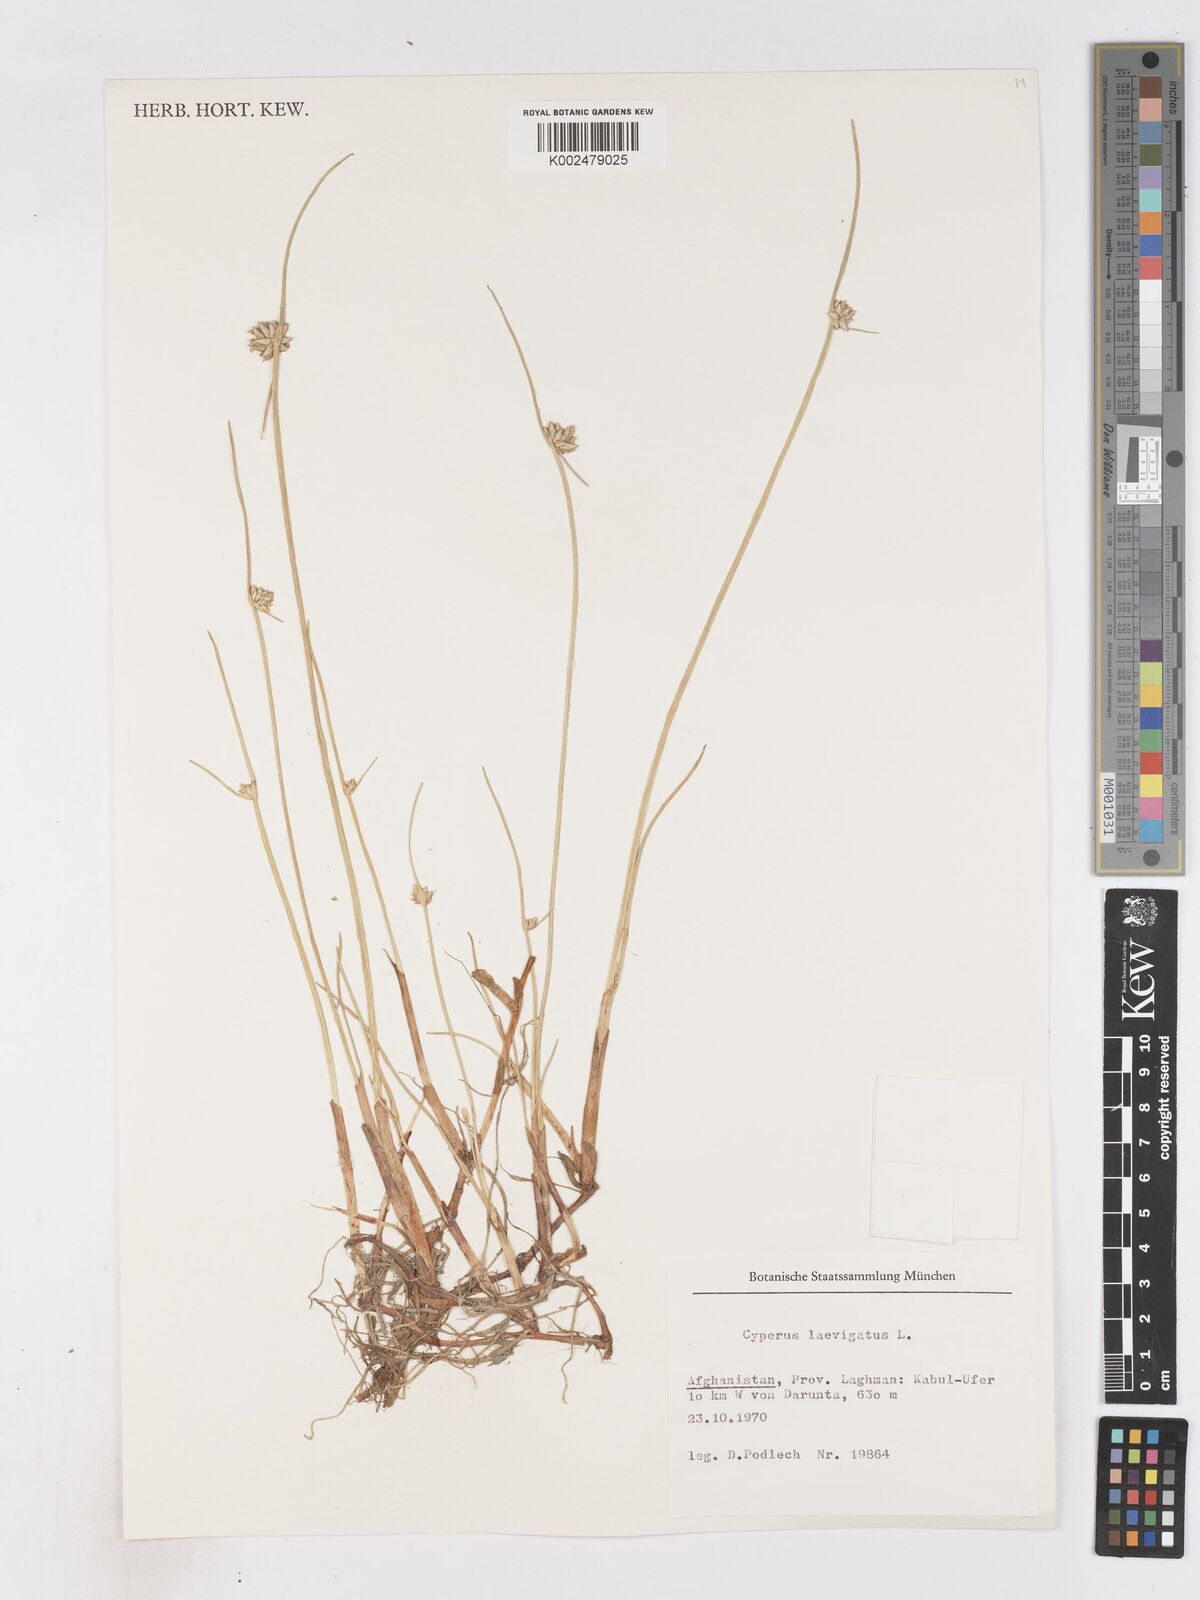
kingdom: Plantae
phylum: Tracheophyta
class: Liliopsida
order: Poales
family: Cyperaceae
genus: Cyperus
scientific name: Cyperus laevigatus
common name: Smooth flat sedge
